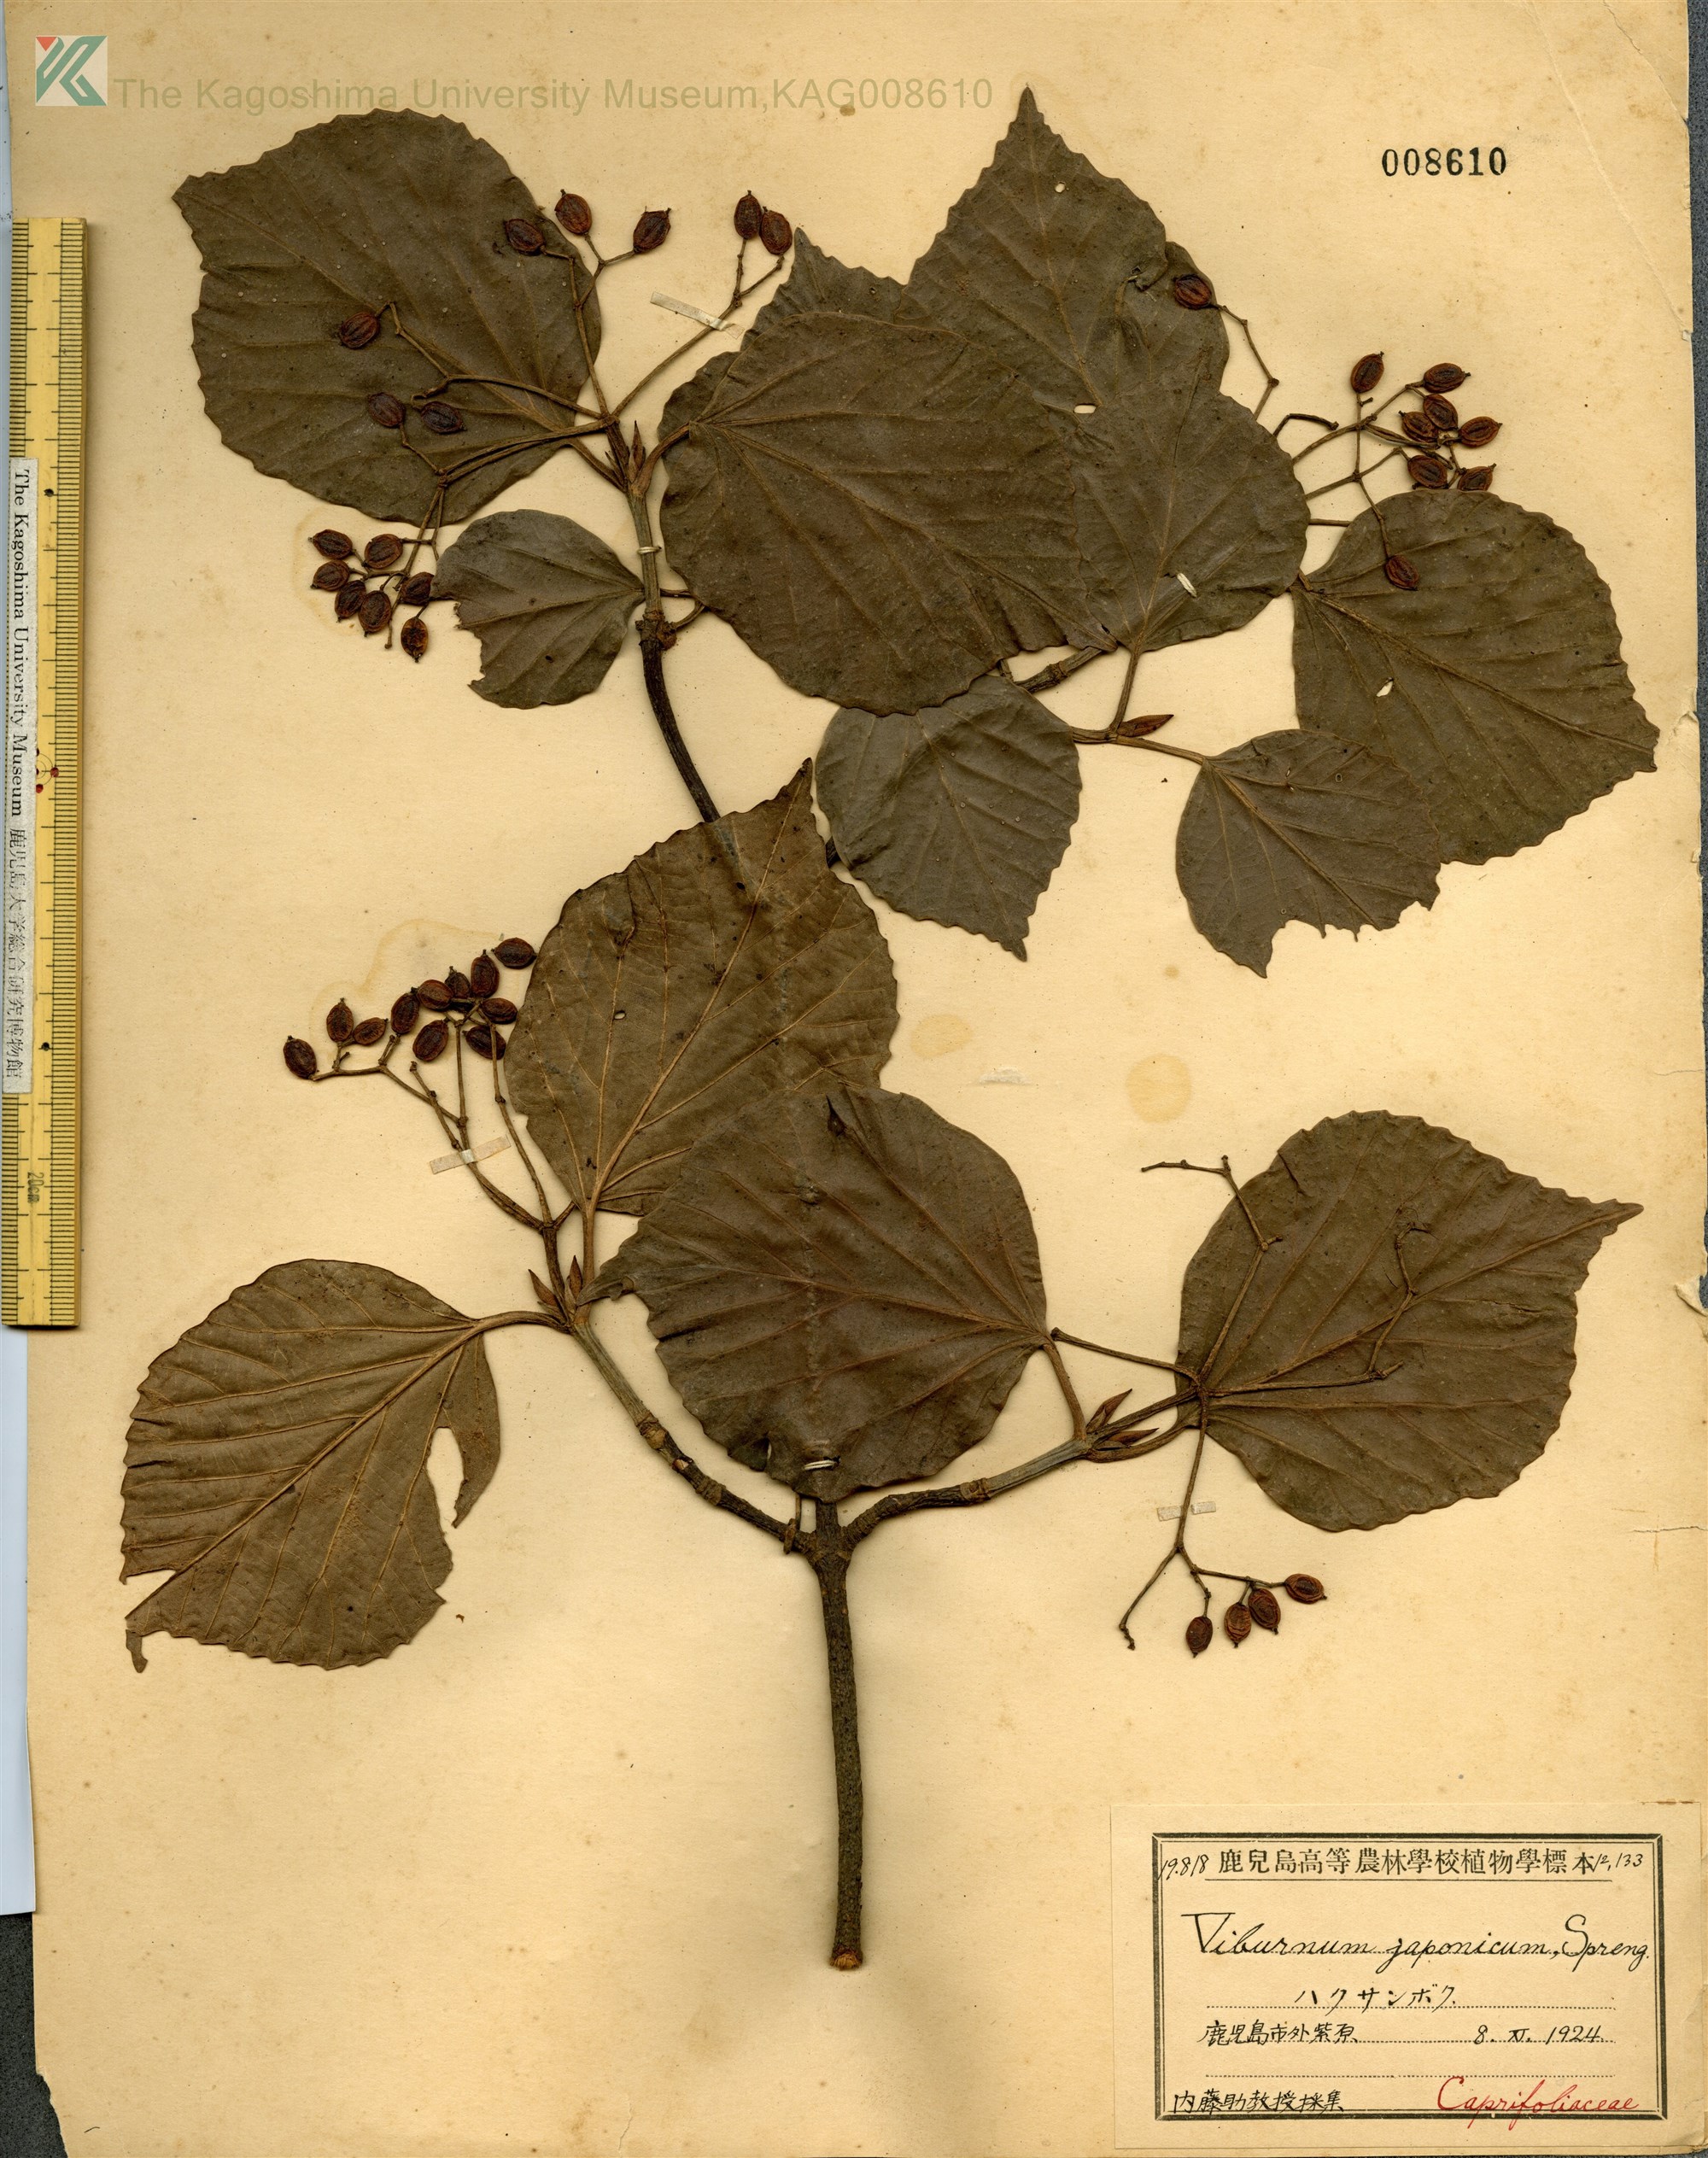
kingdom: Plantae
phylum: Tracheophyta
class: Magnoliopsida
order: Dipsacales
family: Viburnaceae
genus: Viburnum
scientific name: Viburnum japonicum
